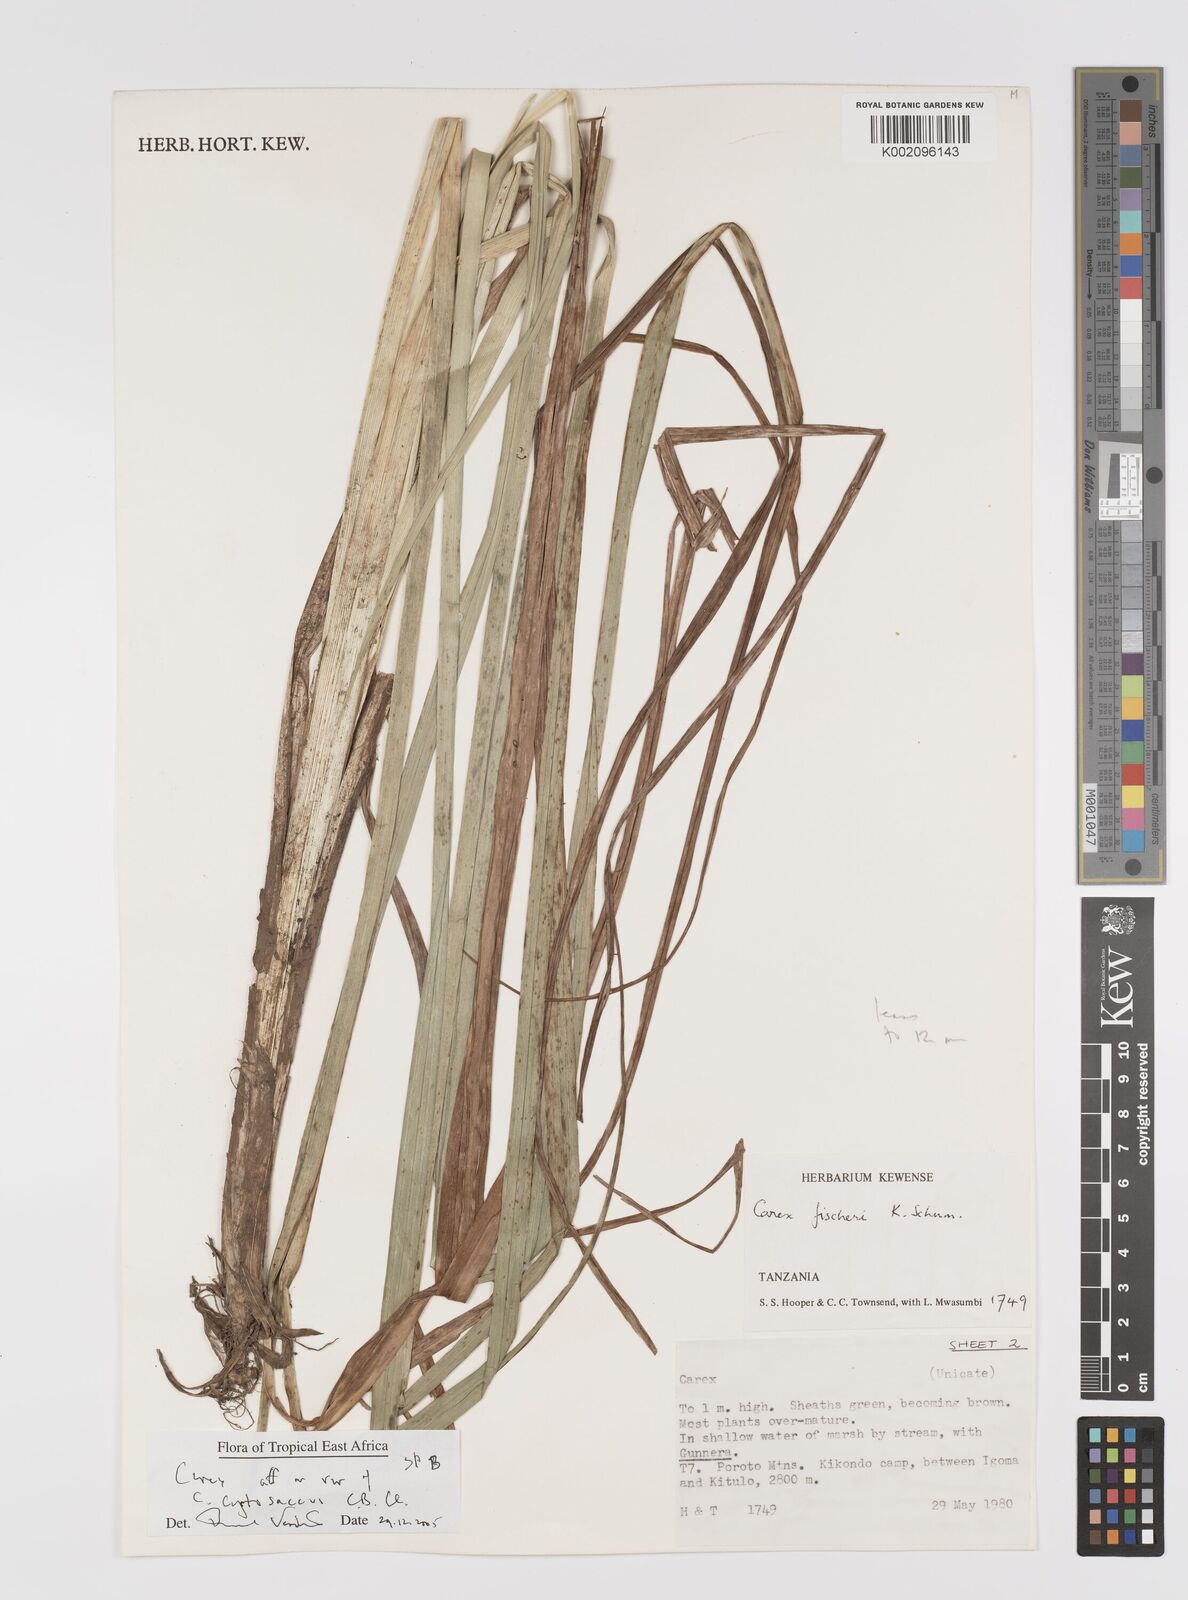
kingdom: Plantae
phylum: Tracheophyta
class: Liliopsida
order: Poales
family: Cyperaceae
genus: Carex
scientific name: Carex
